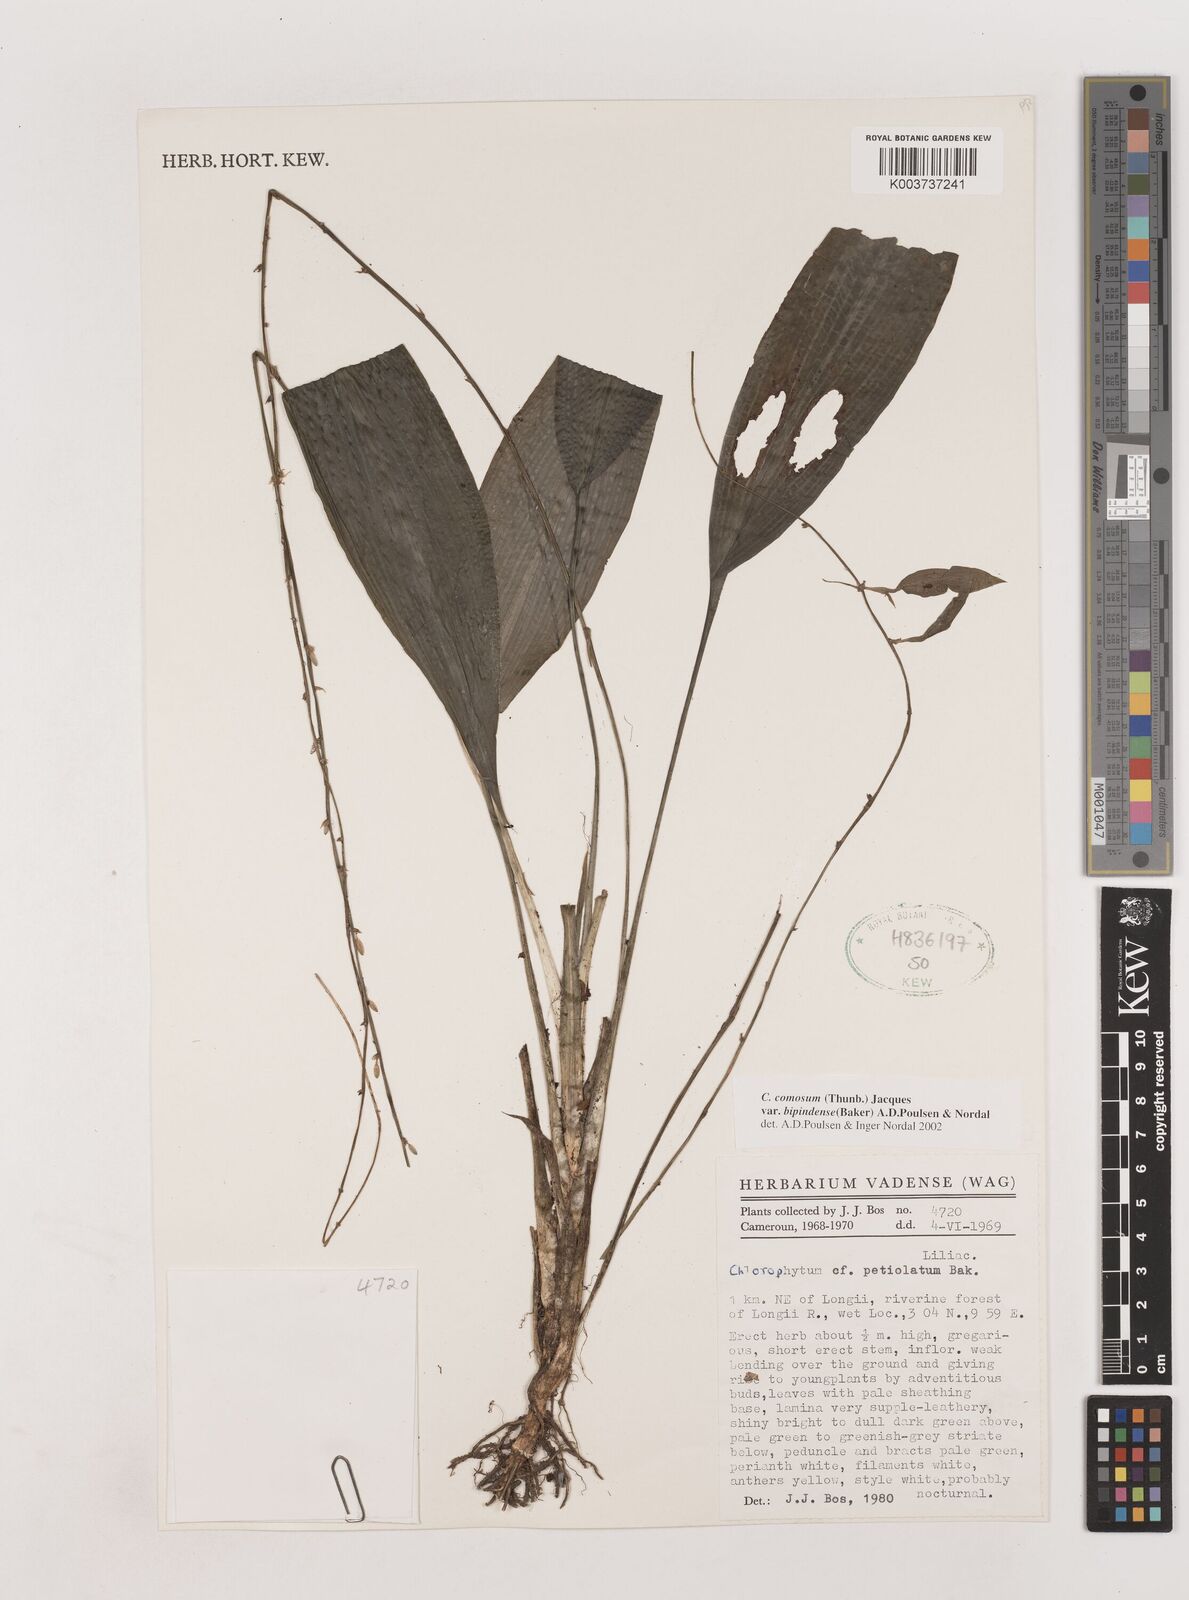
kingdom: Plantae
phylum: Tracheophyta
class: Liliopsida
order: Asparagales
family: Asparagaceae
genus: Chlorophytum
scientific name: Chlorophytum sparsiflorum
